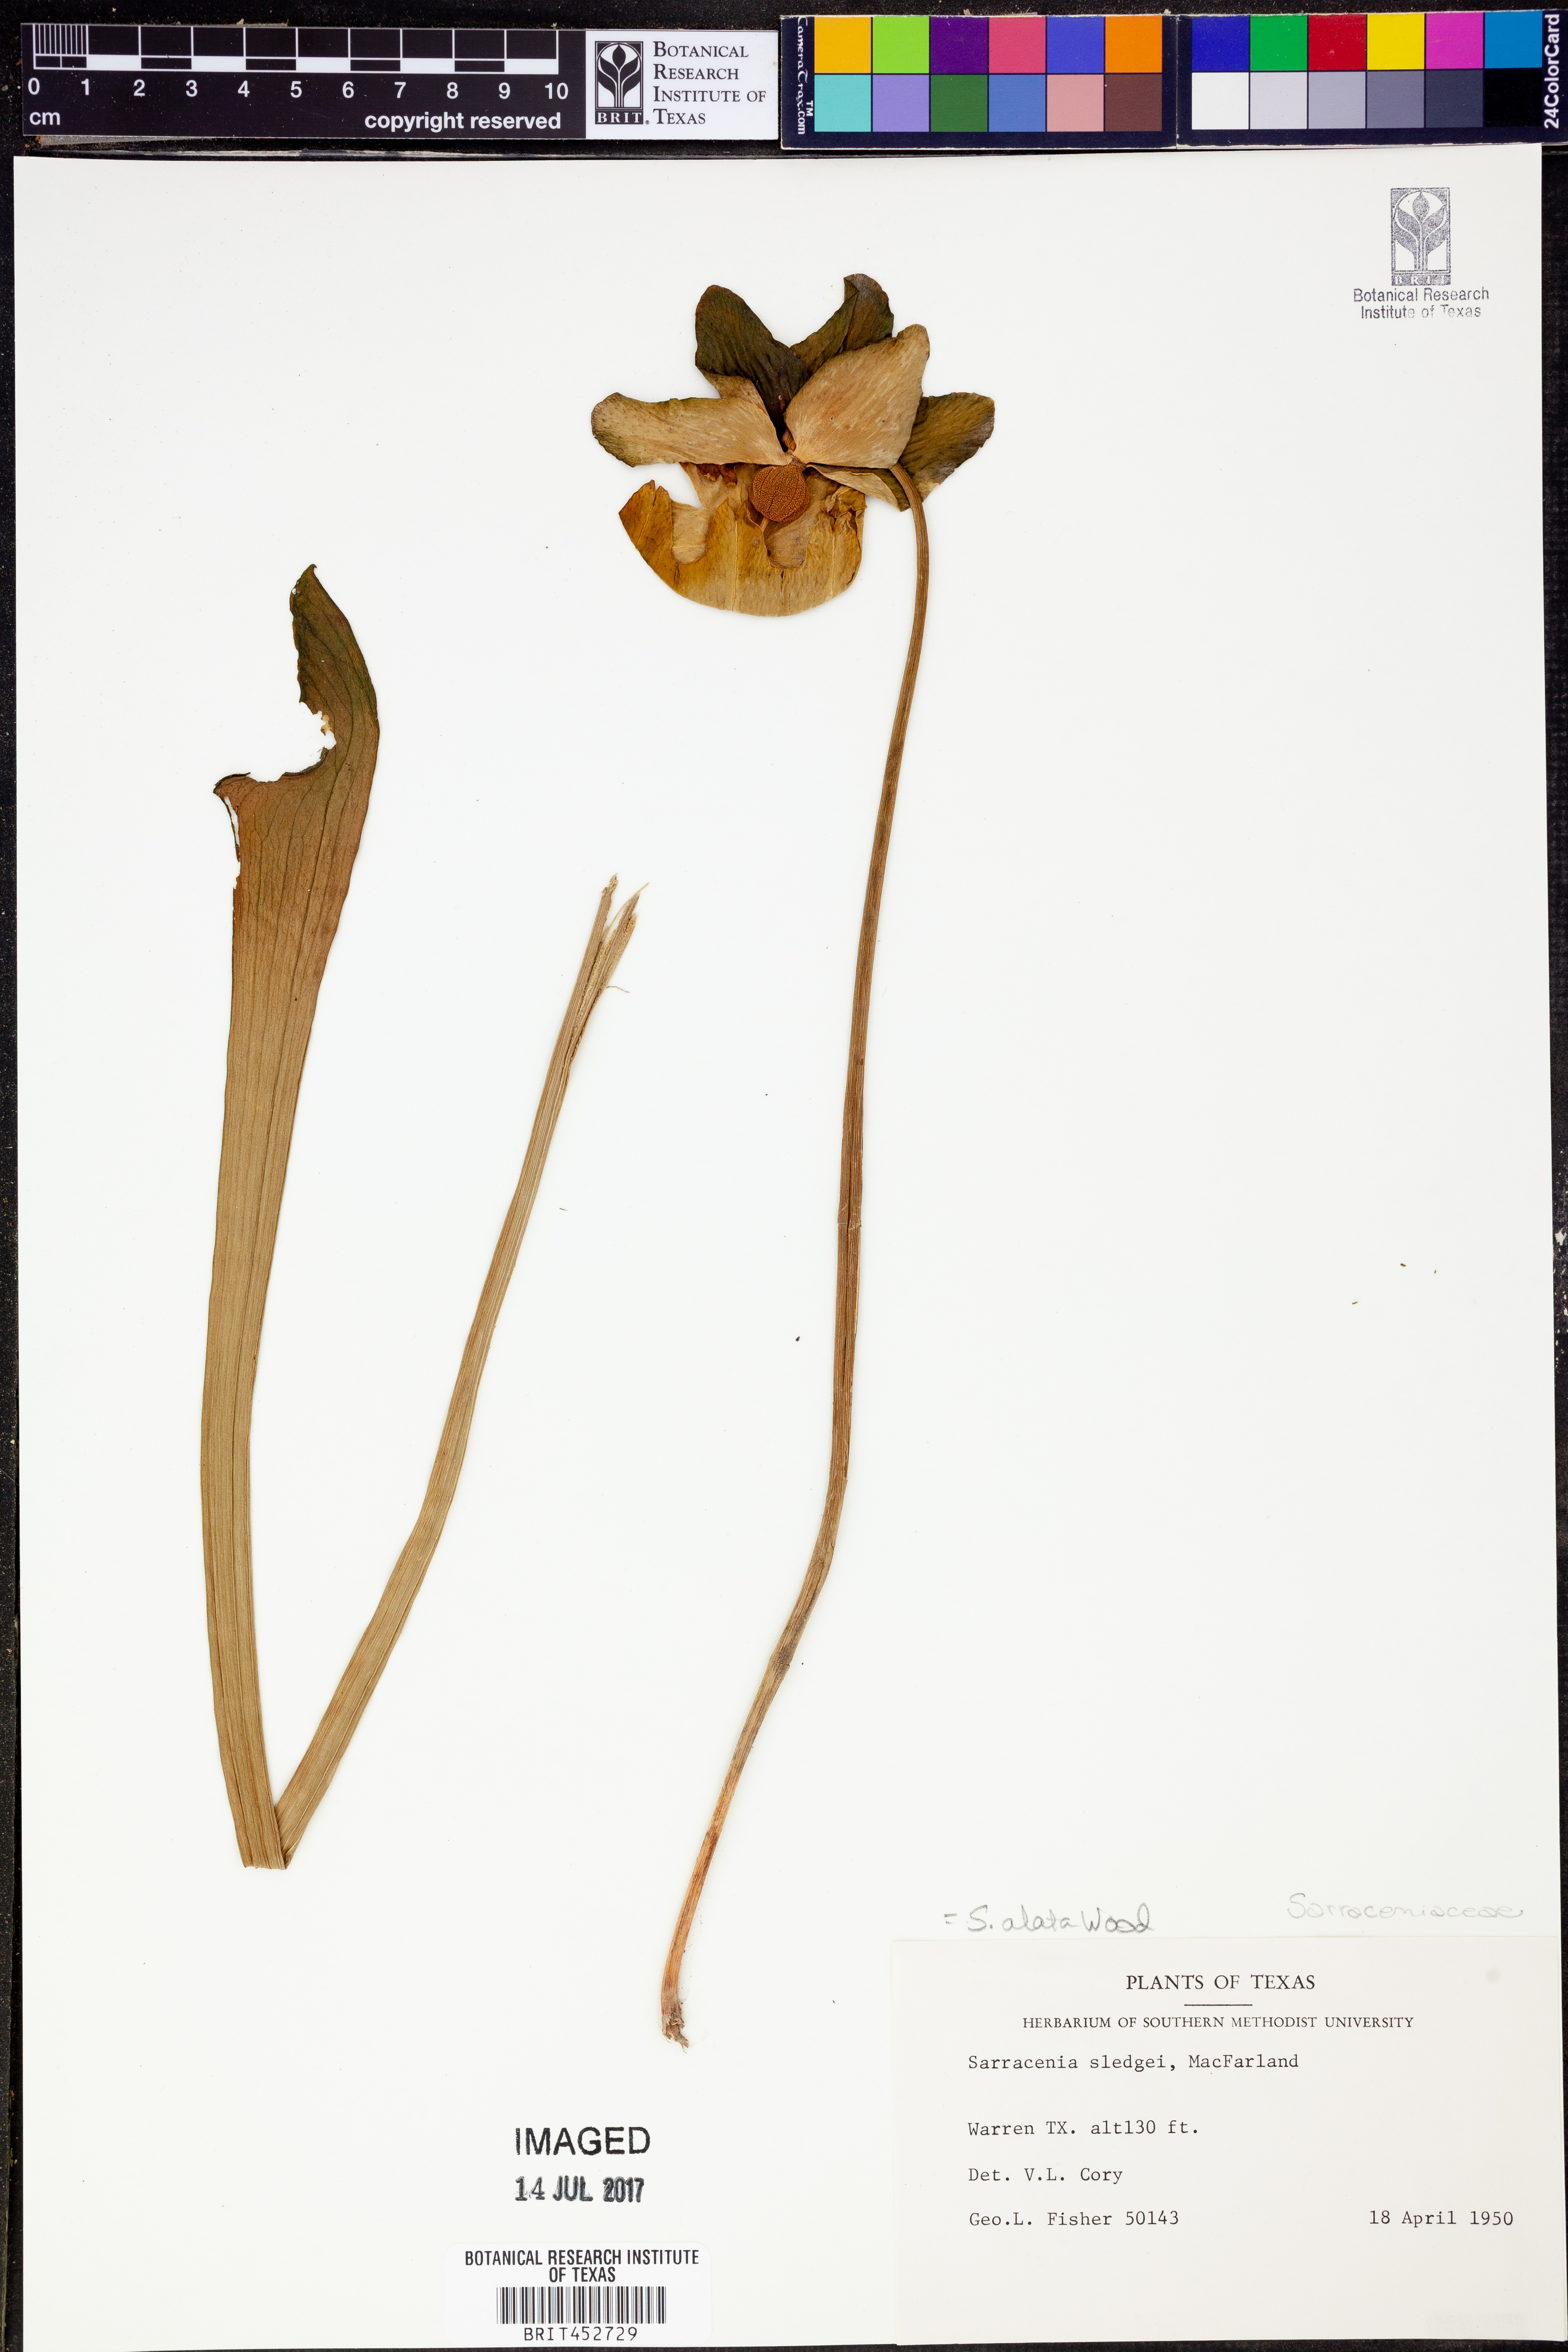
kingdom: Plantae
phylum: Tracheophyta
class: Magnoliopsida
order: Ericales
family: Sarraceniaceae
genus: Sarracenia
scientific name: Sarracenia alata
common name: Yellow trumpets
